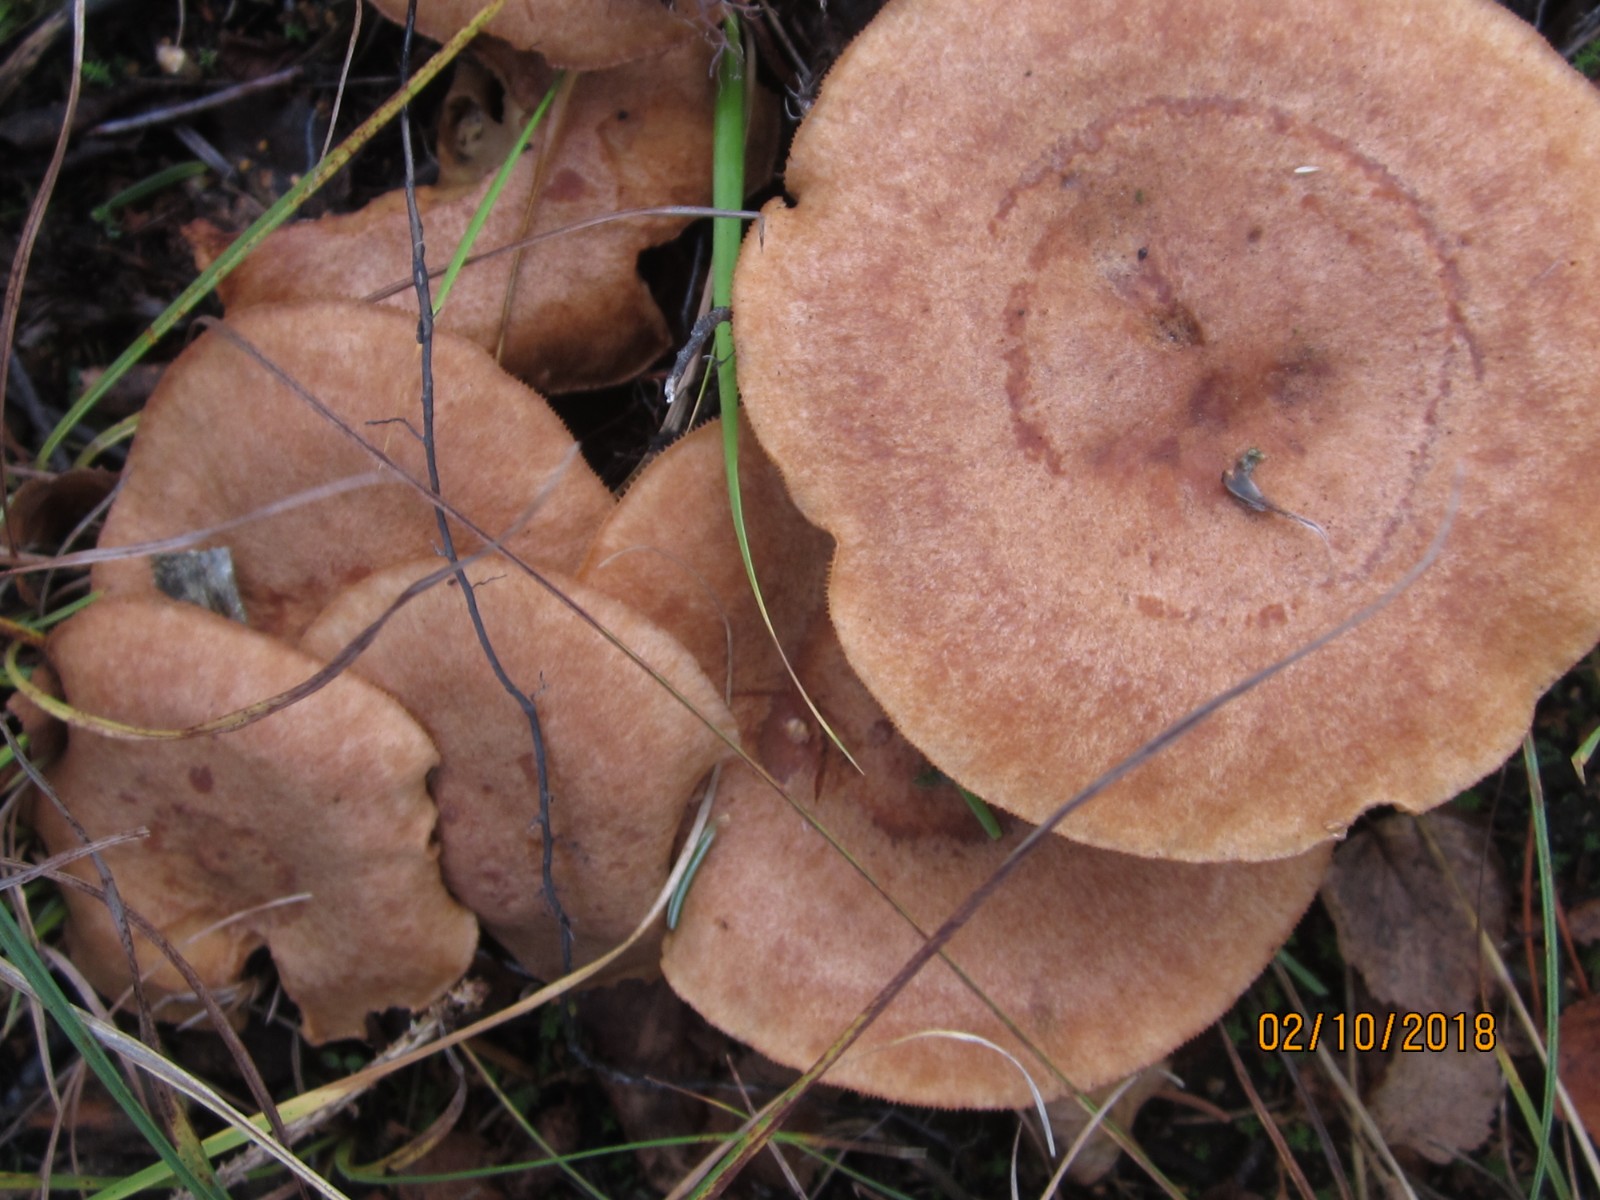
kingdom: Fungi
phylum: Basidiomycota
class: Agaricomycetes
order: Russulales
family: Russulaceae
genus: Lactarius
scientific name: Lactarius helvus
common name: mose-mælkehat
